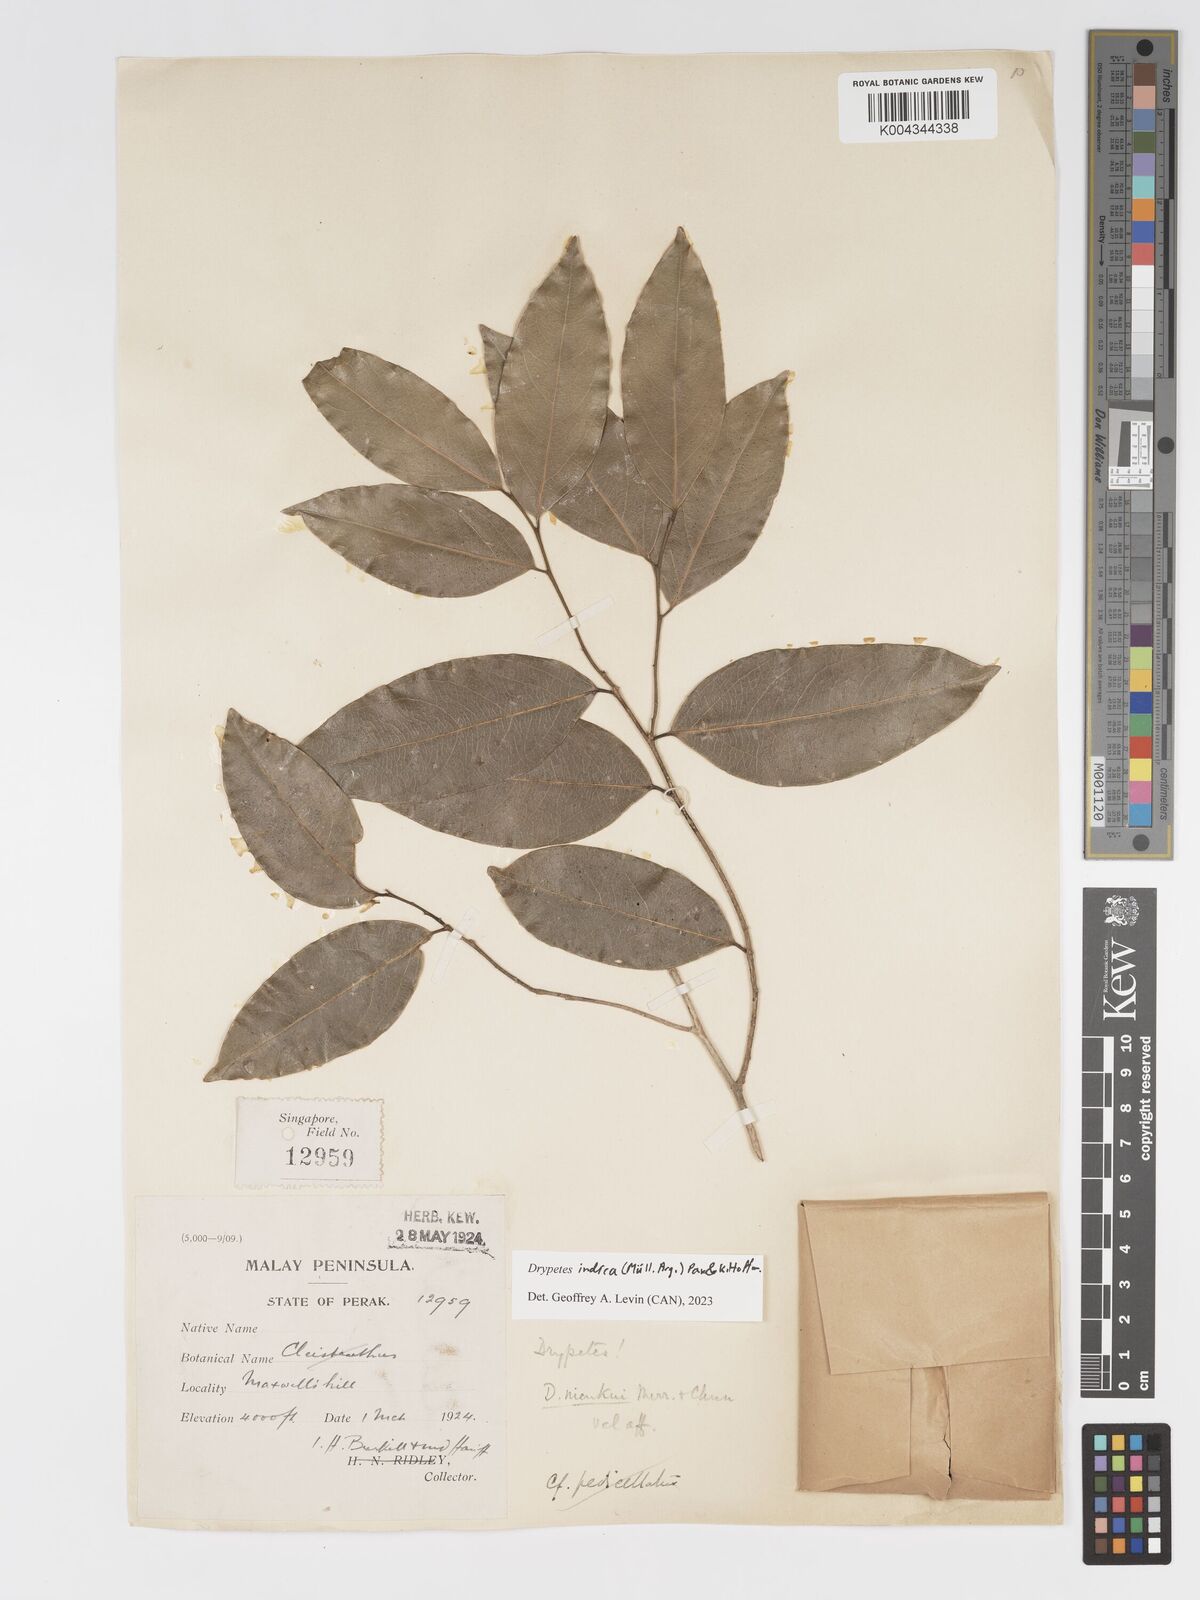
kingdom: Plantae
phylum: Tracheophyta
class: Magnoliopsida
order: Malpighiales
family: Putranjivaceae
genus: Drypetes
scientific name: Drypetes indica
